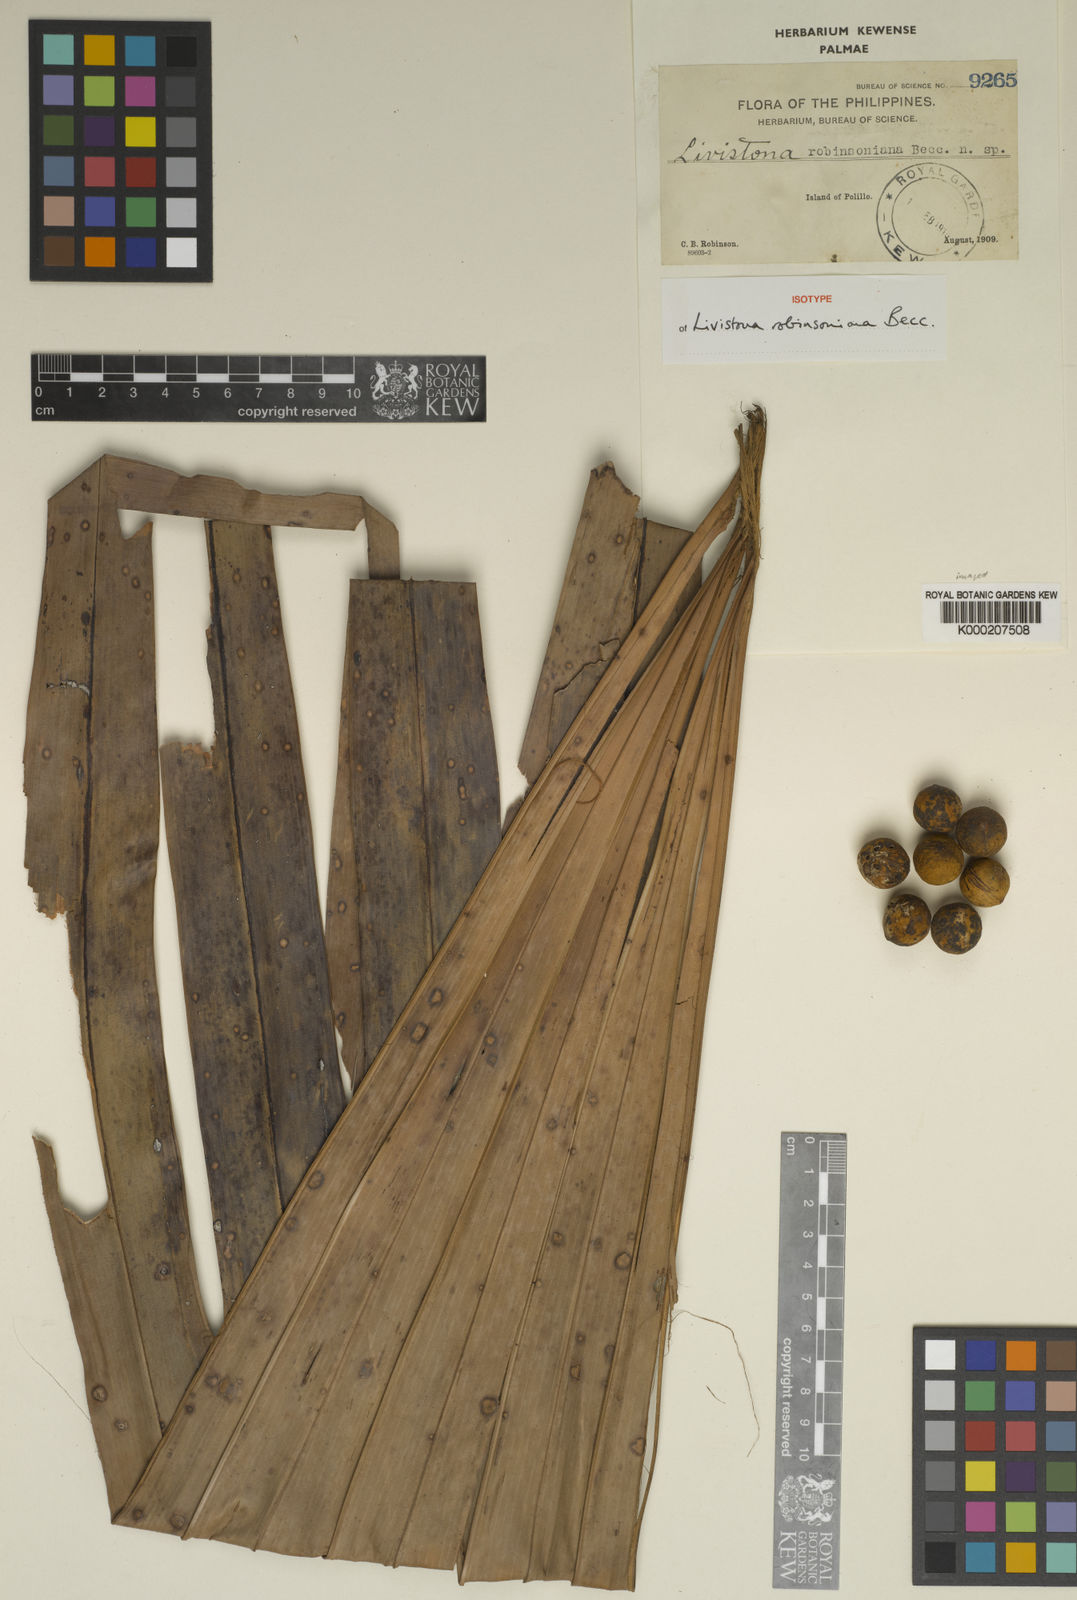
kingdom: Plantae
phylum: Tracheophyta
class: Liliopsida
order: Arecales
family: Arecaceae
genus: Saribus
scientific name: Saribus rotundifolius
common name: Palm
